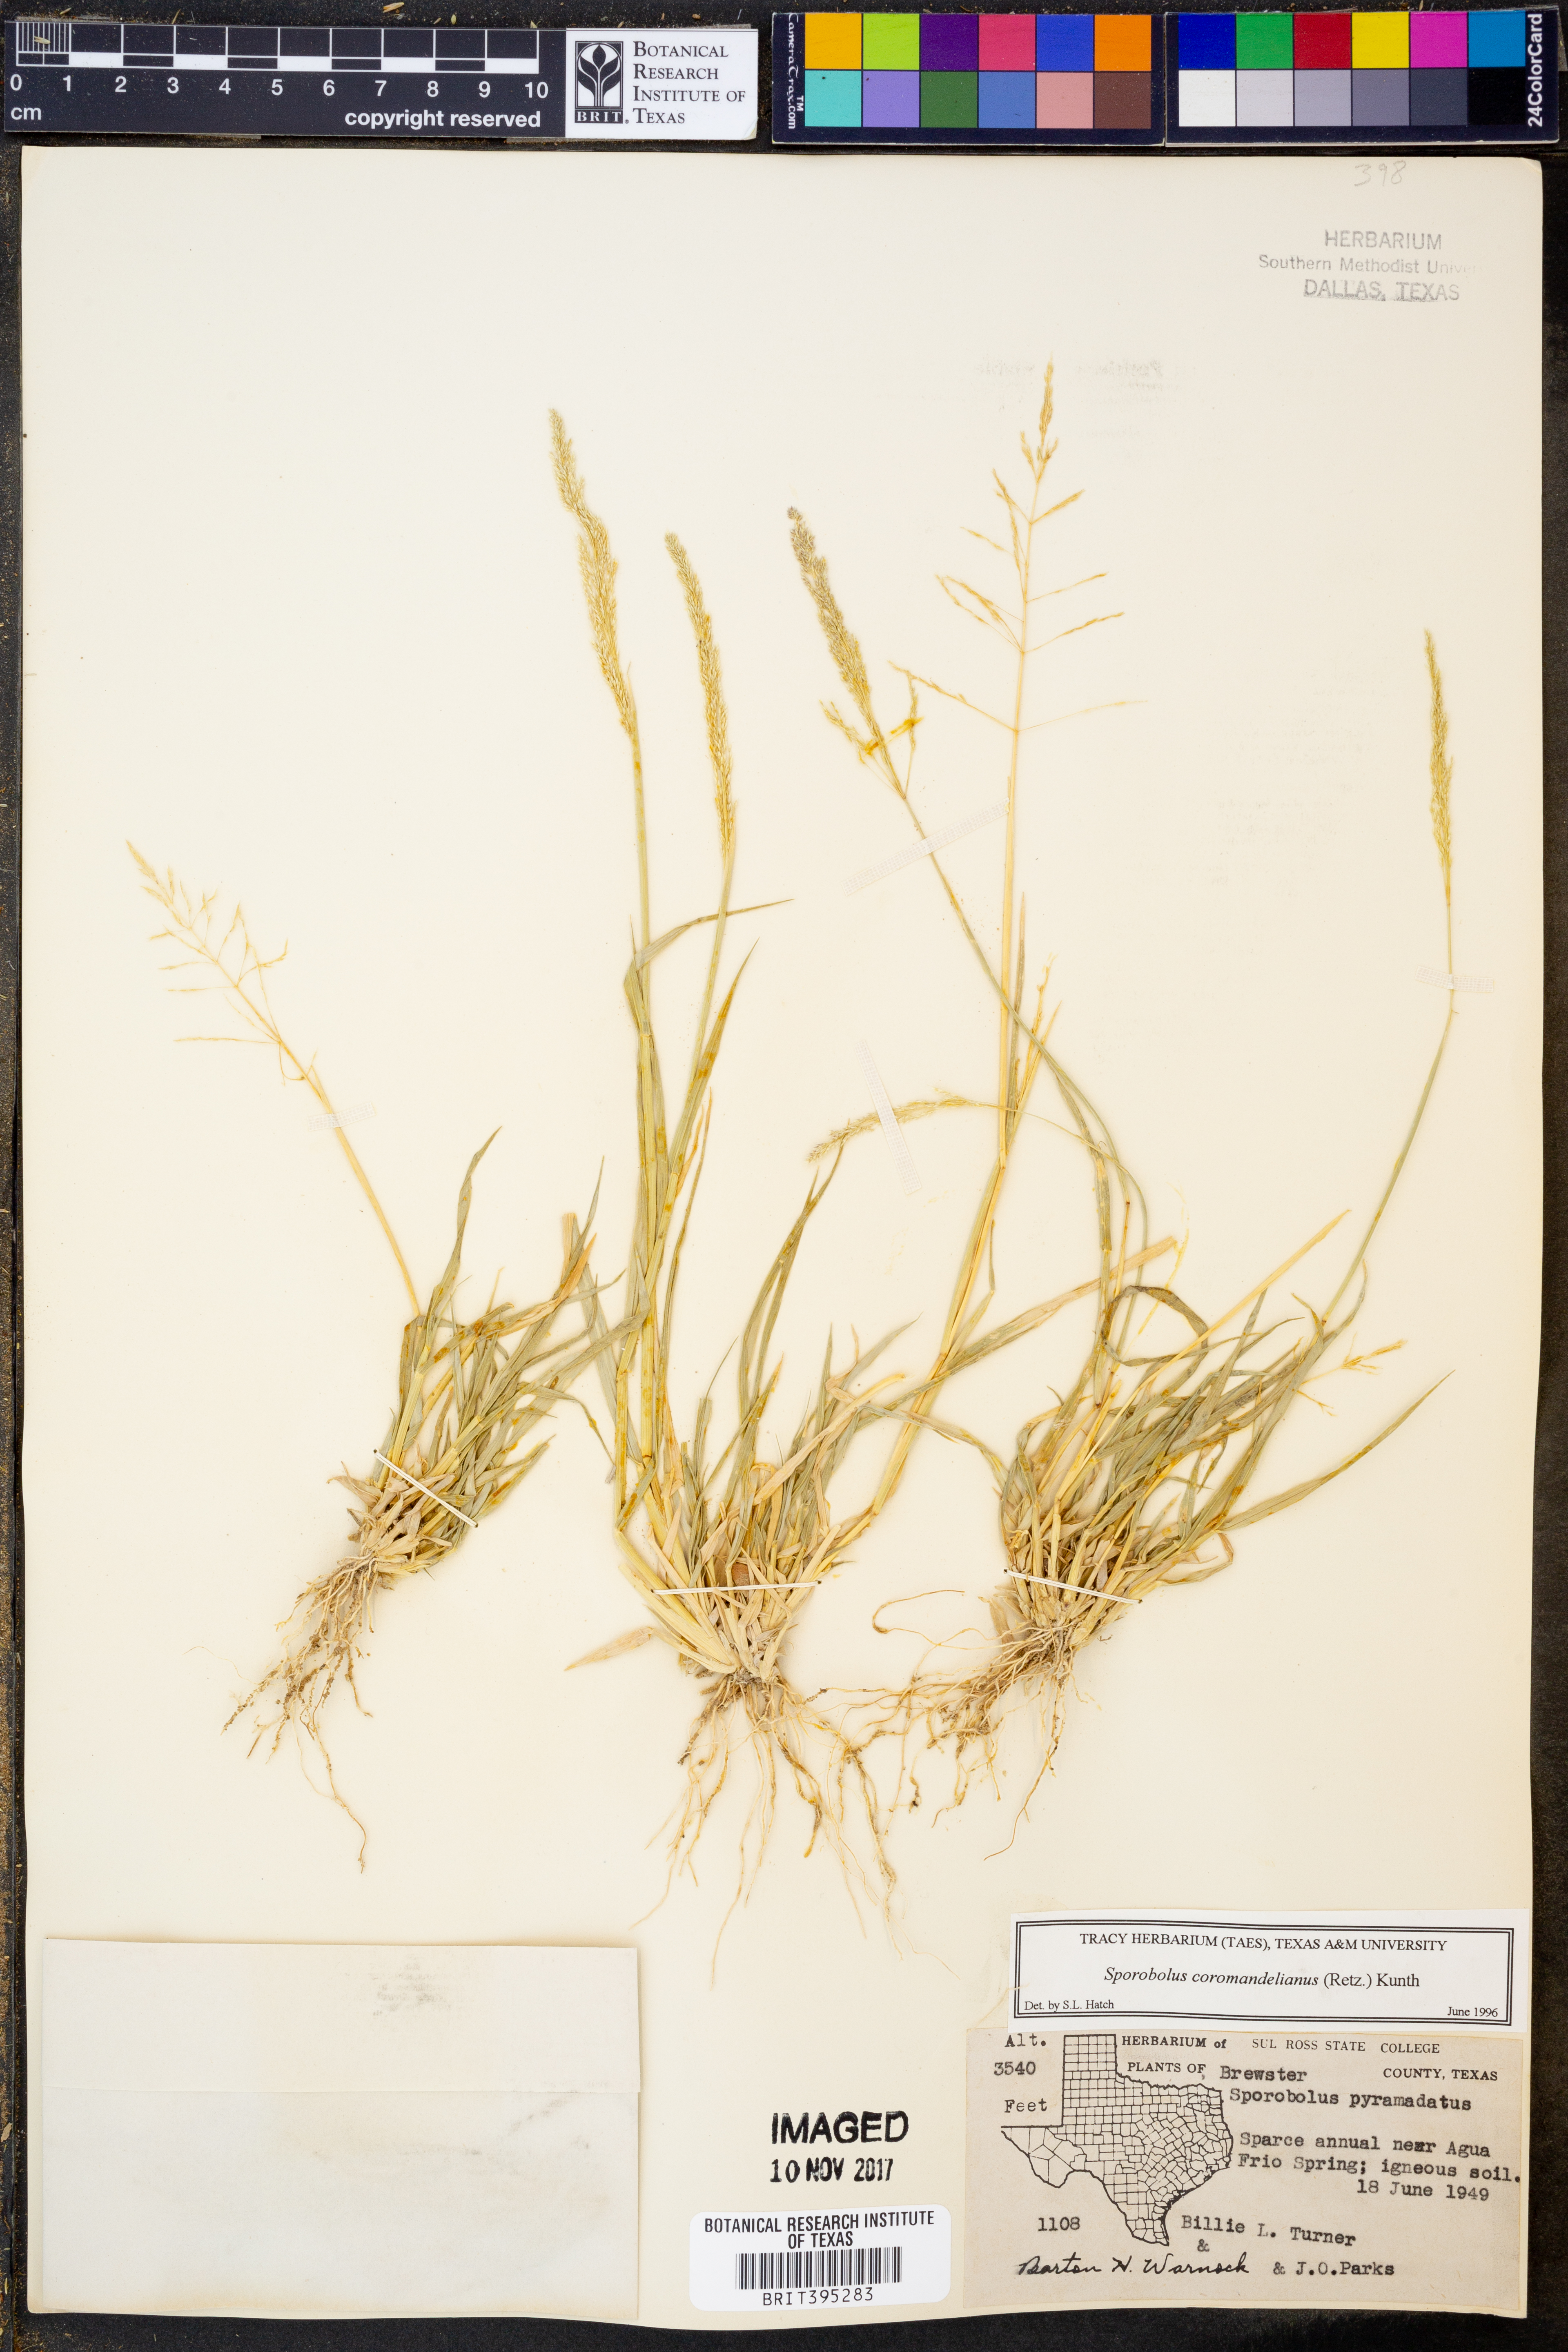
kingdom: Plantae
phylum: Tracheophyta
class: Liliopsida
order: Poales
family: Poaceae
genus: Sporobolus
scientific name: Sporobolus coromandelianus
